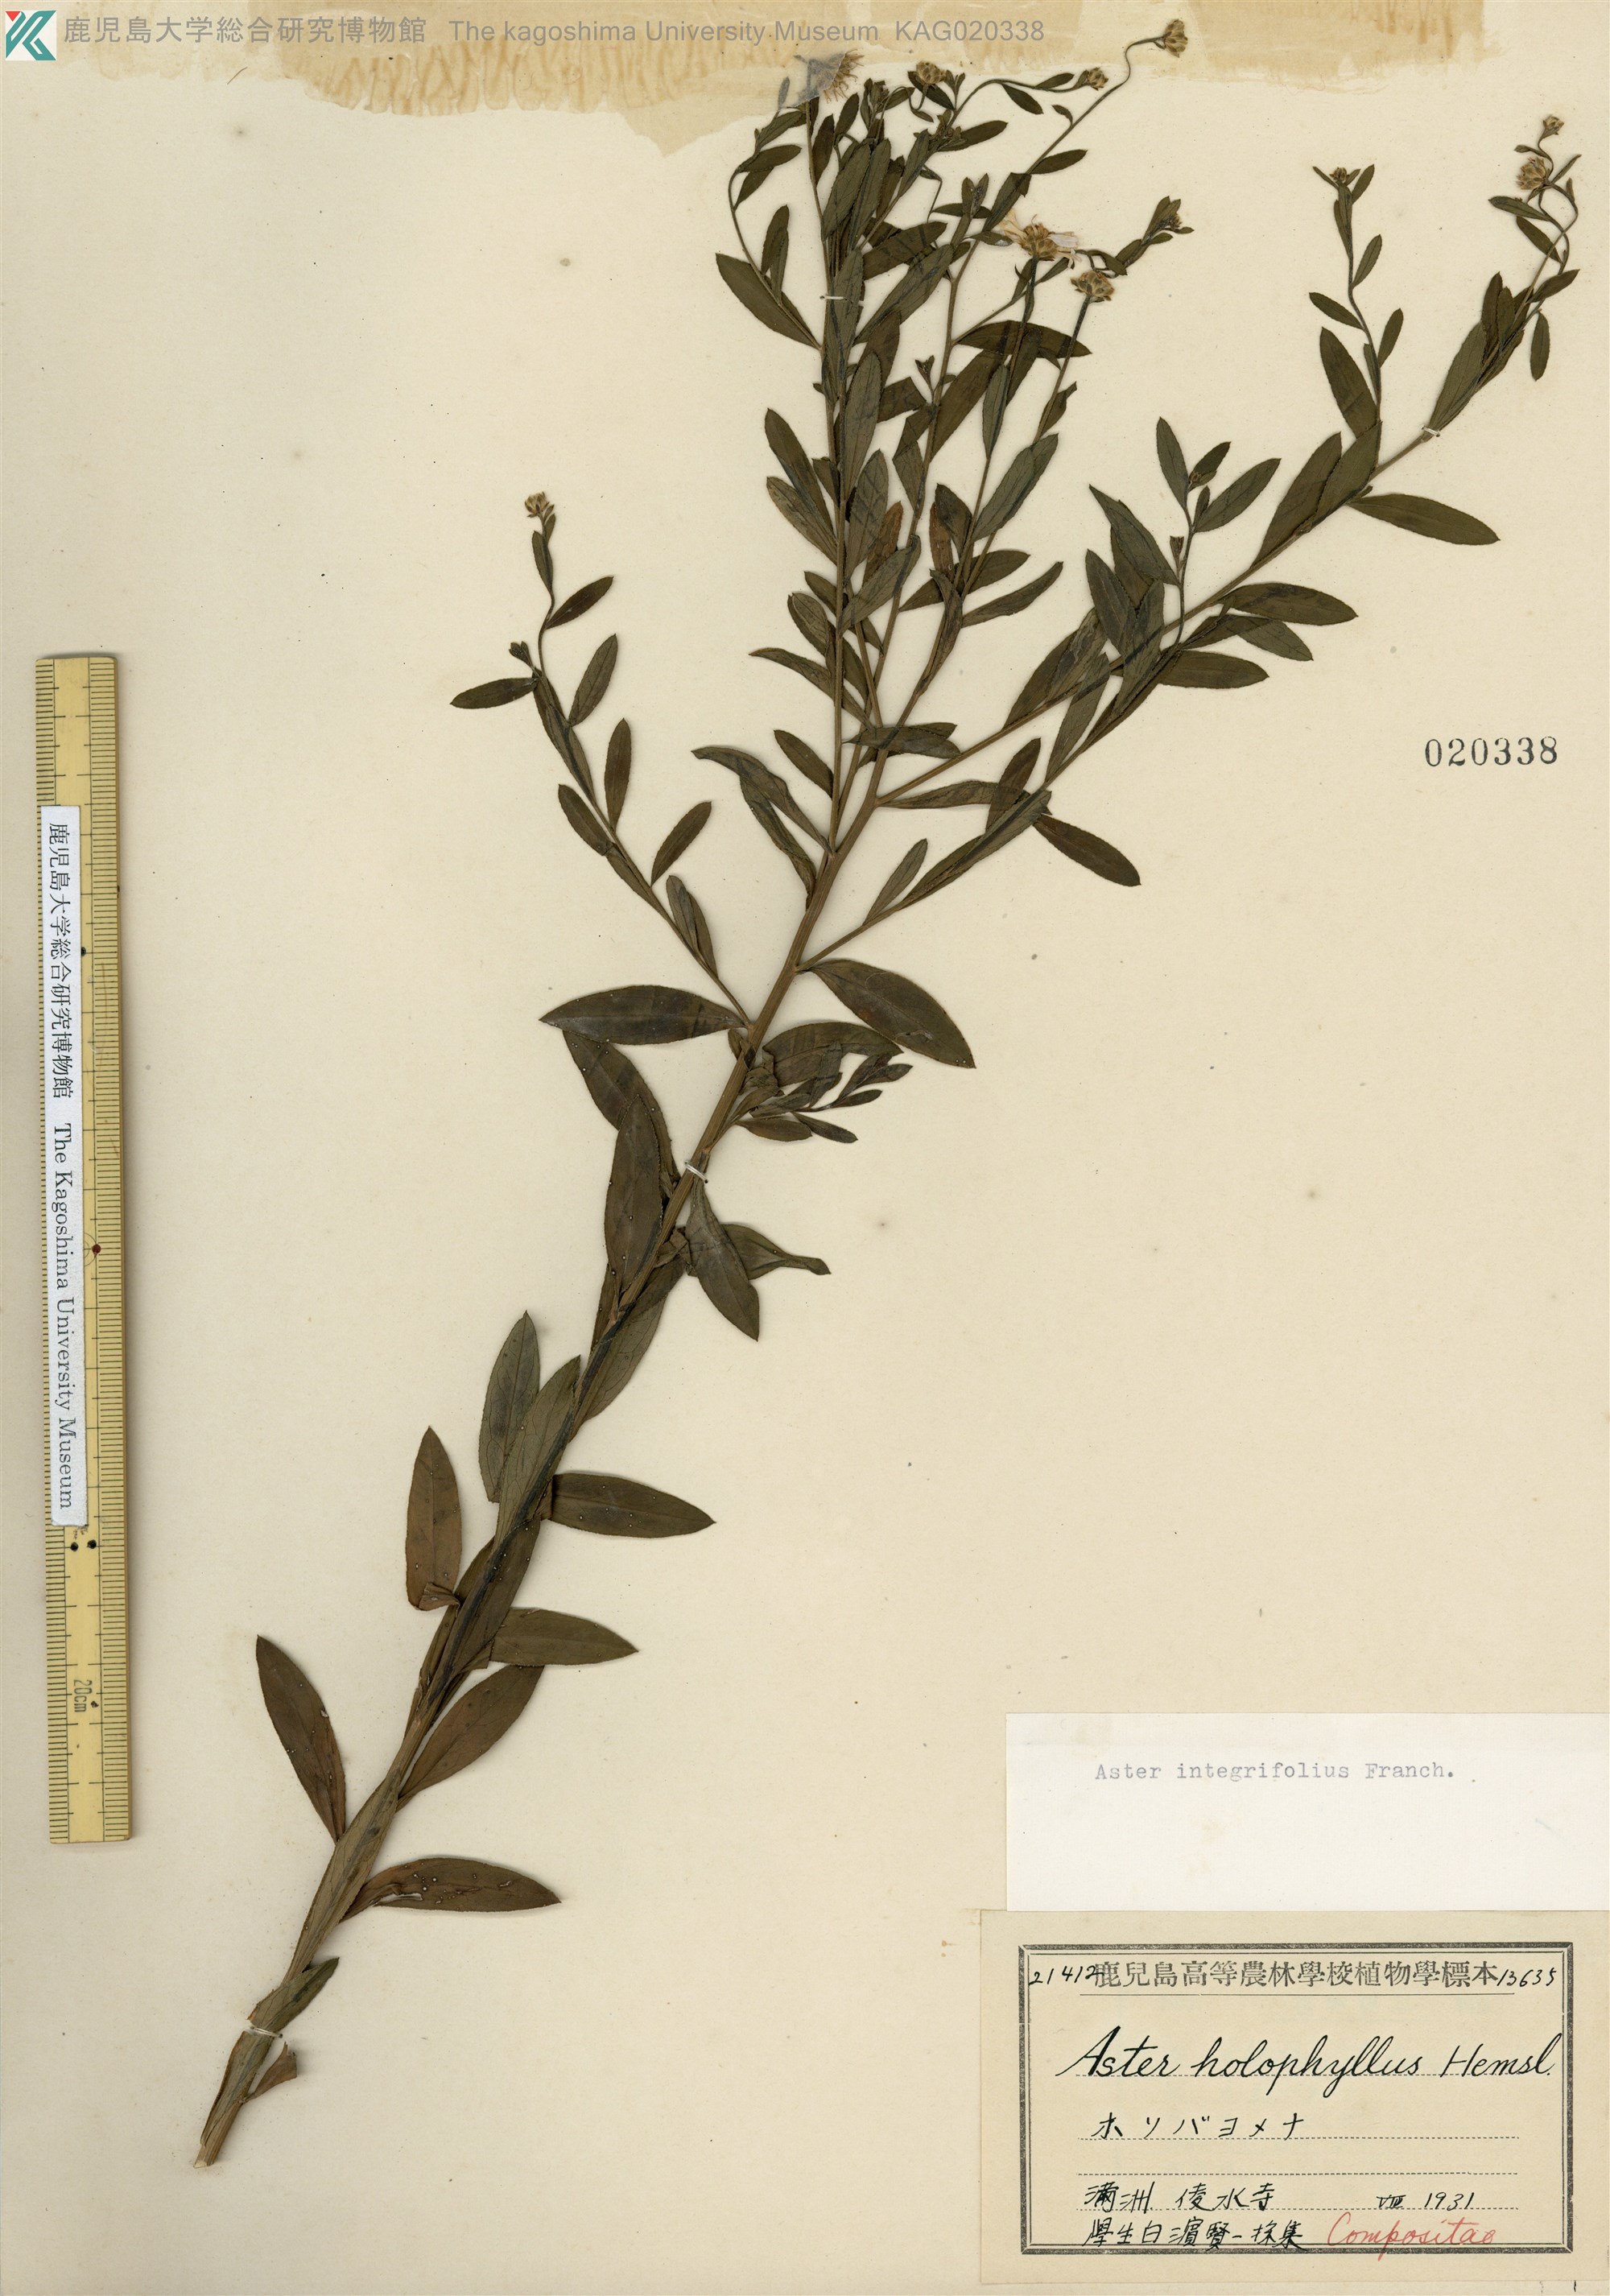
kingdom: Plantae
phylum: Tracheophyta
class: Magnoliopsida
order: Asterales
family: Asteraceae
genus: Kalimeris
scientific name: Kalimeris integrifolia
